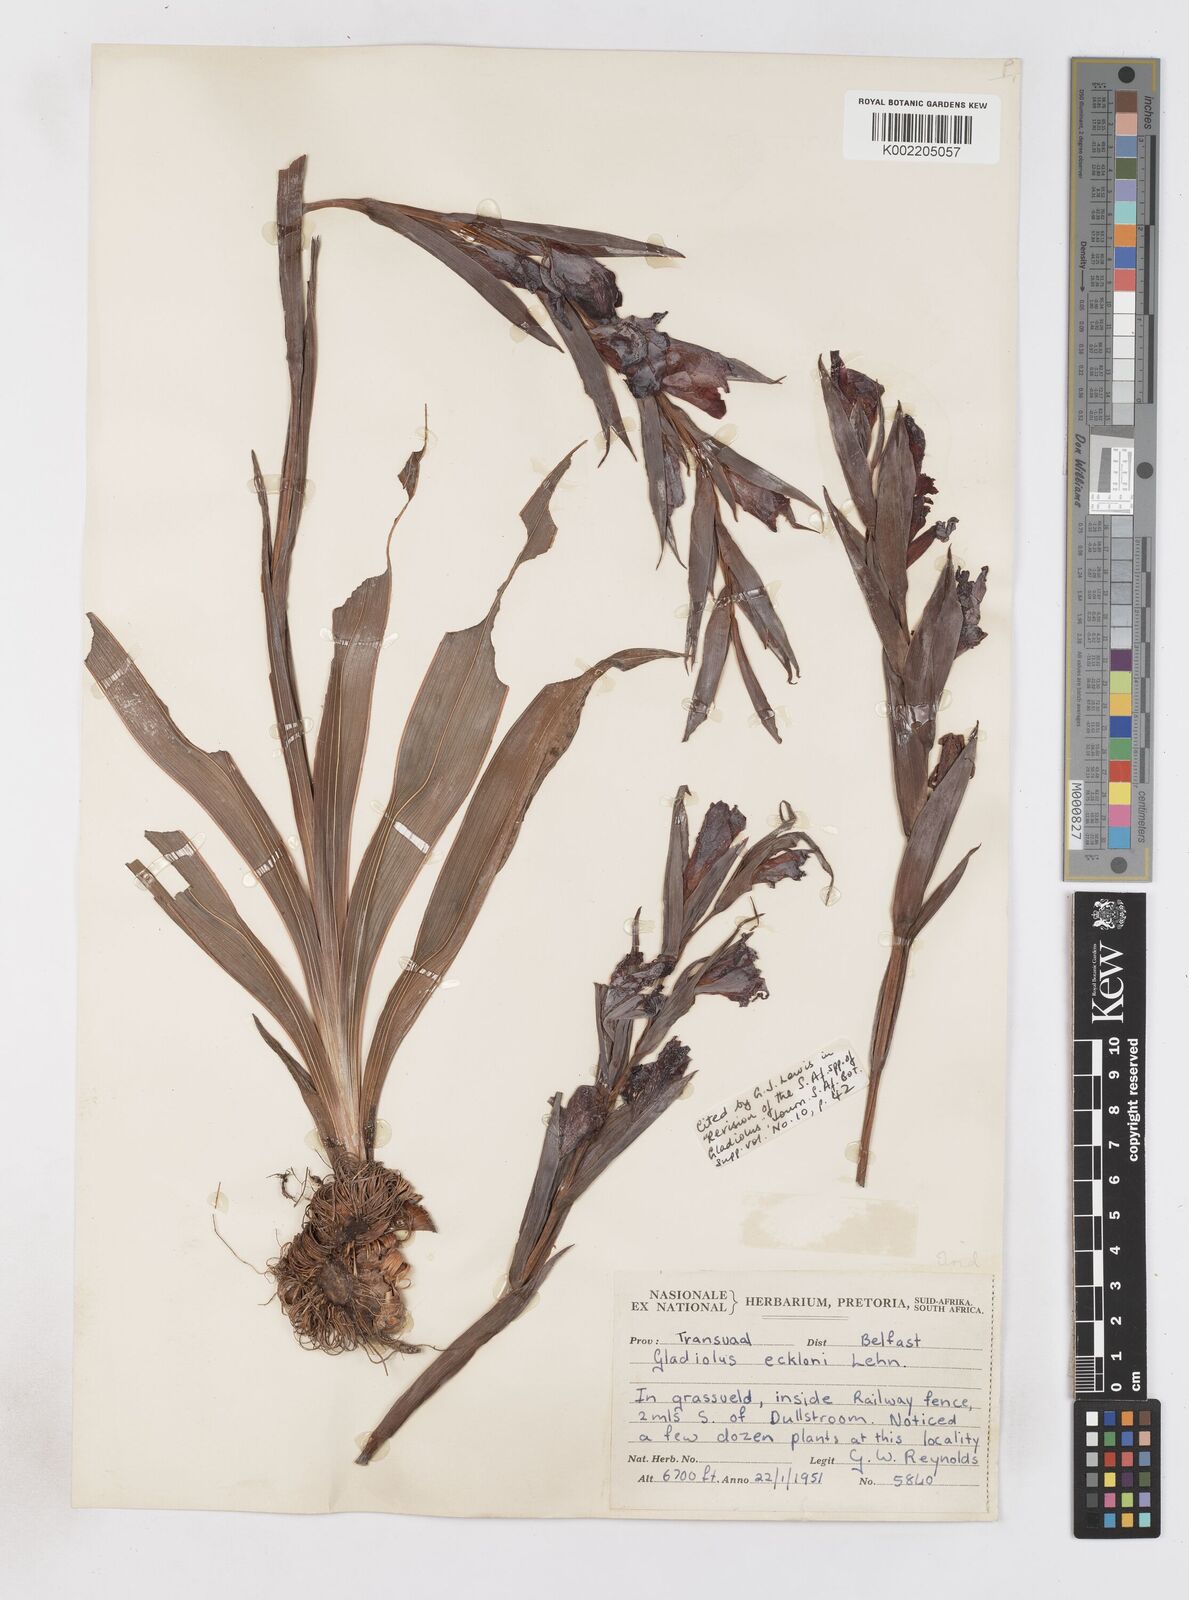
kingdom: Plantae
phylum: Tracheophyta
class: Liliopsida
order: Asparagales
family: Iridaceae
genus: Gladiolus
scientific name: Gladiolus ecklonii
